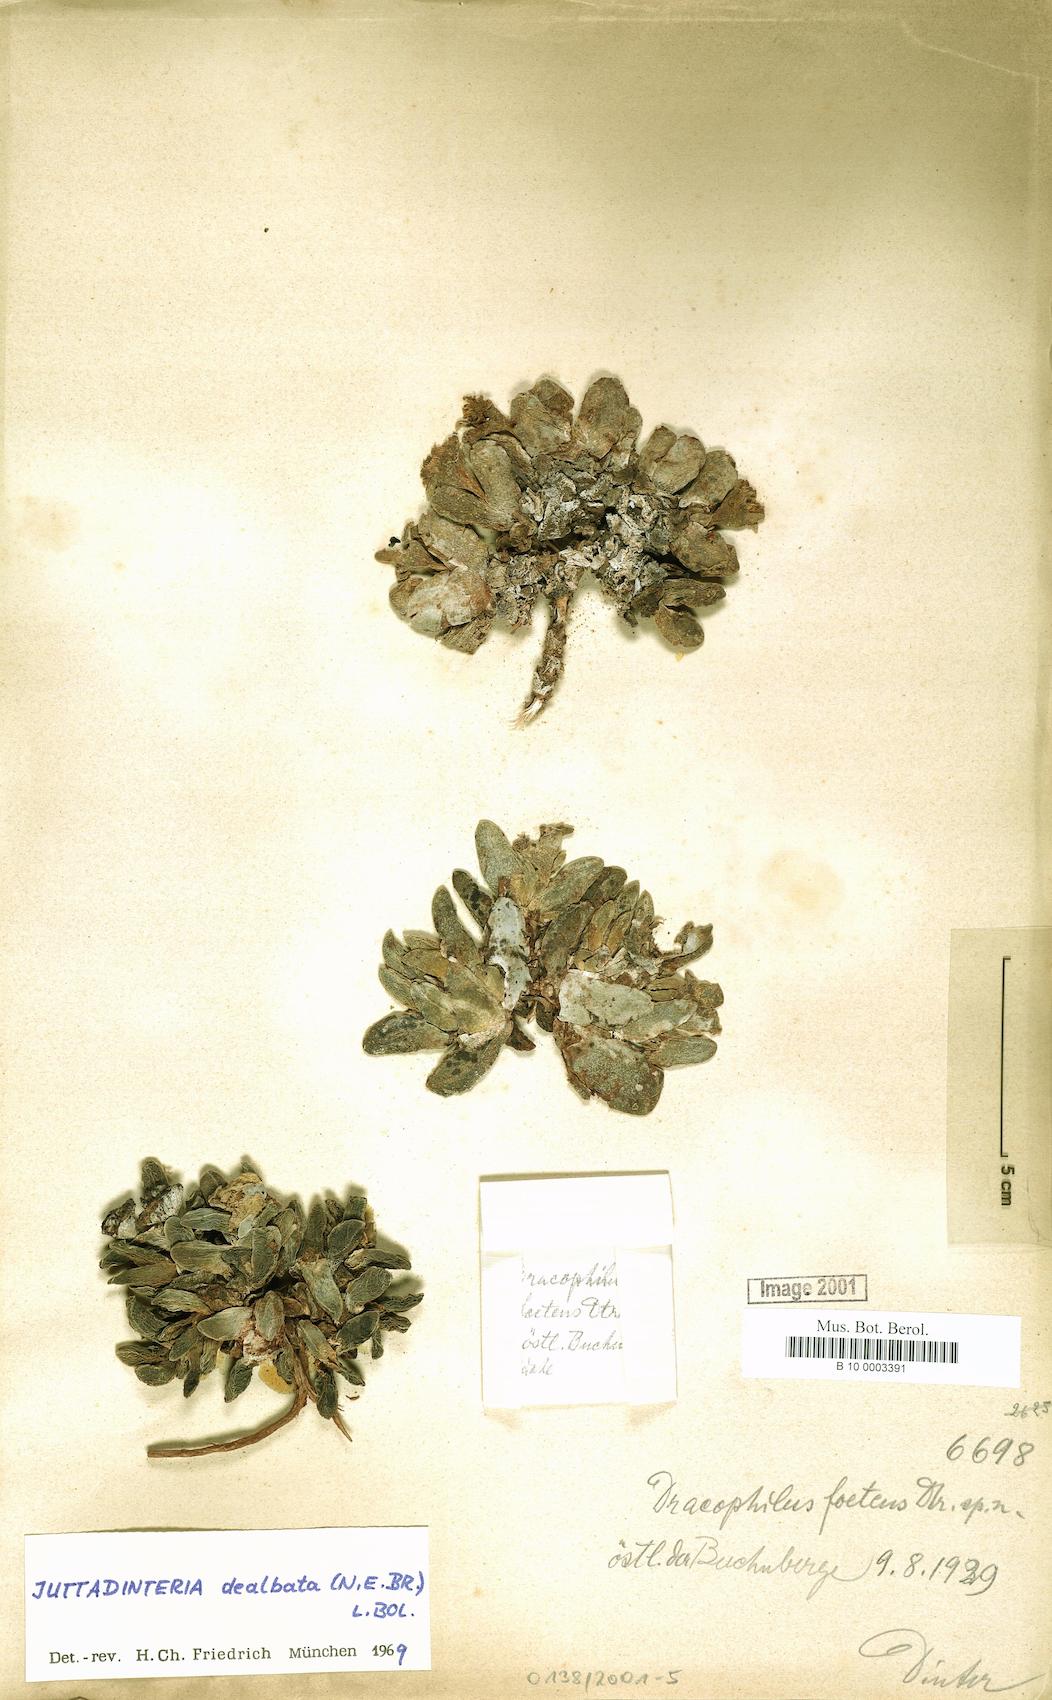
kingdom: Plantae
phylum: Tracheophyta
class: Magnoliopsida
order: Caryophyllales
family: Aizoaceae
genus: Dracophilus
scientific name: Dracophilus dealbatus
